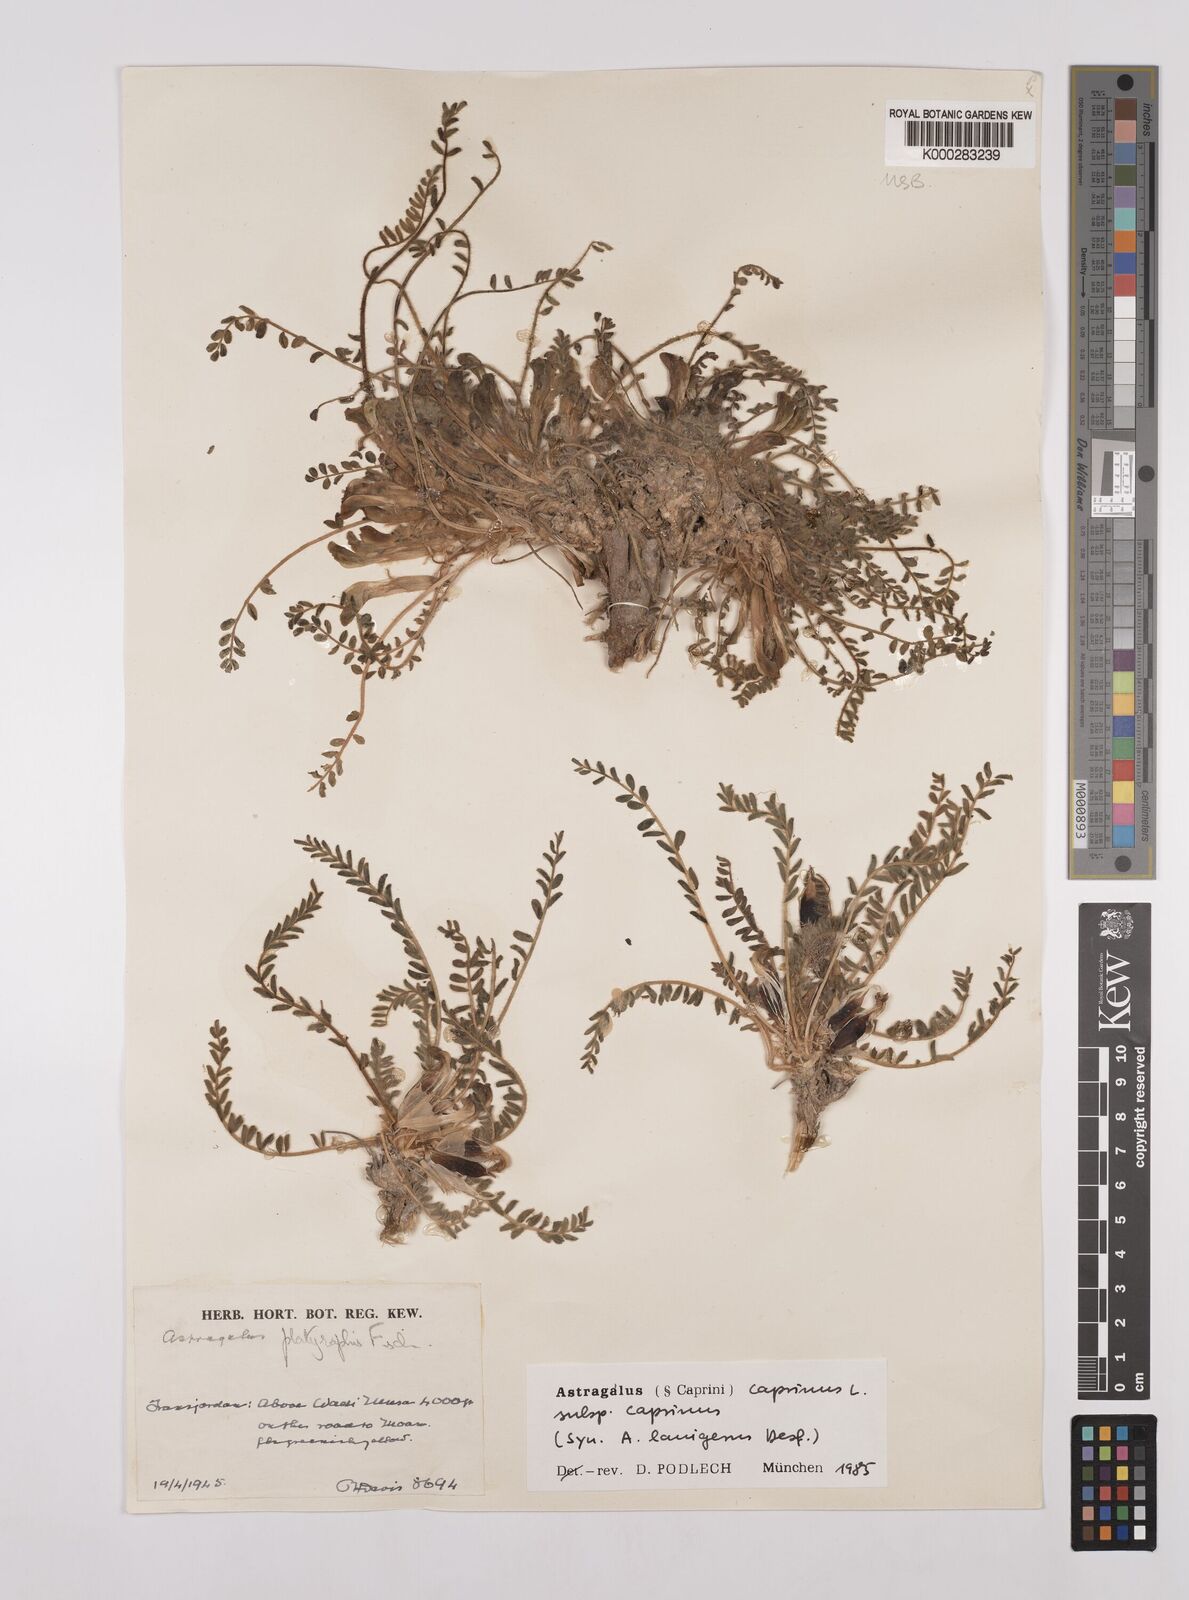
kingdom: Plantae
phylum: Tracheophyta
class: Magnoliopsida
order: Fabales
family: Fabaceae
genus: Astragalus
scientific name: Astragalus caprinus
